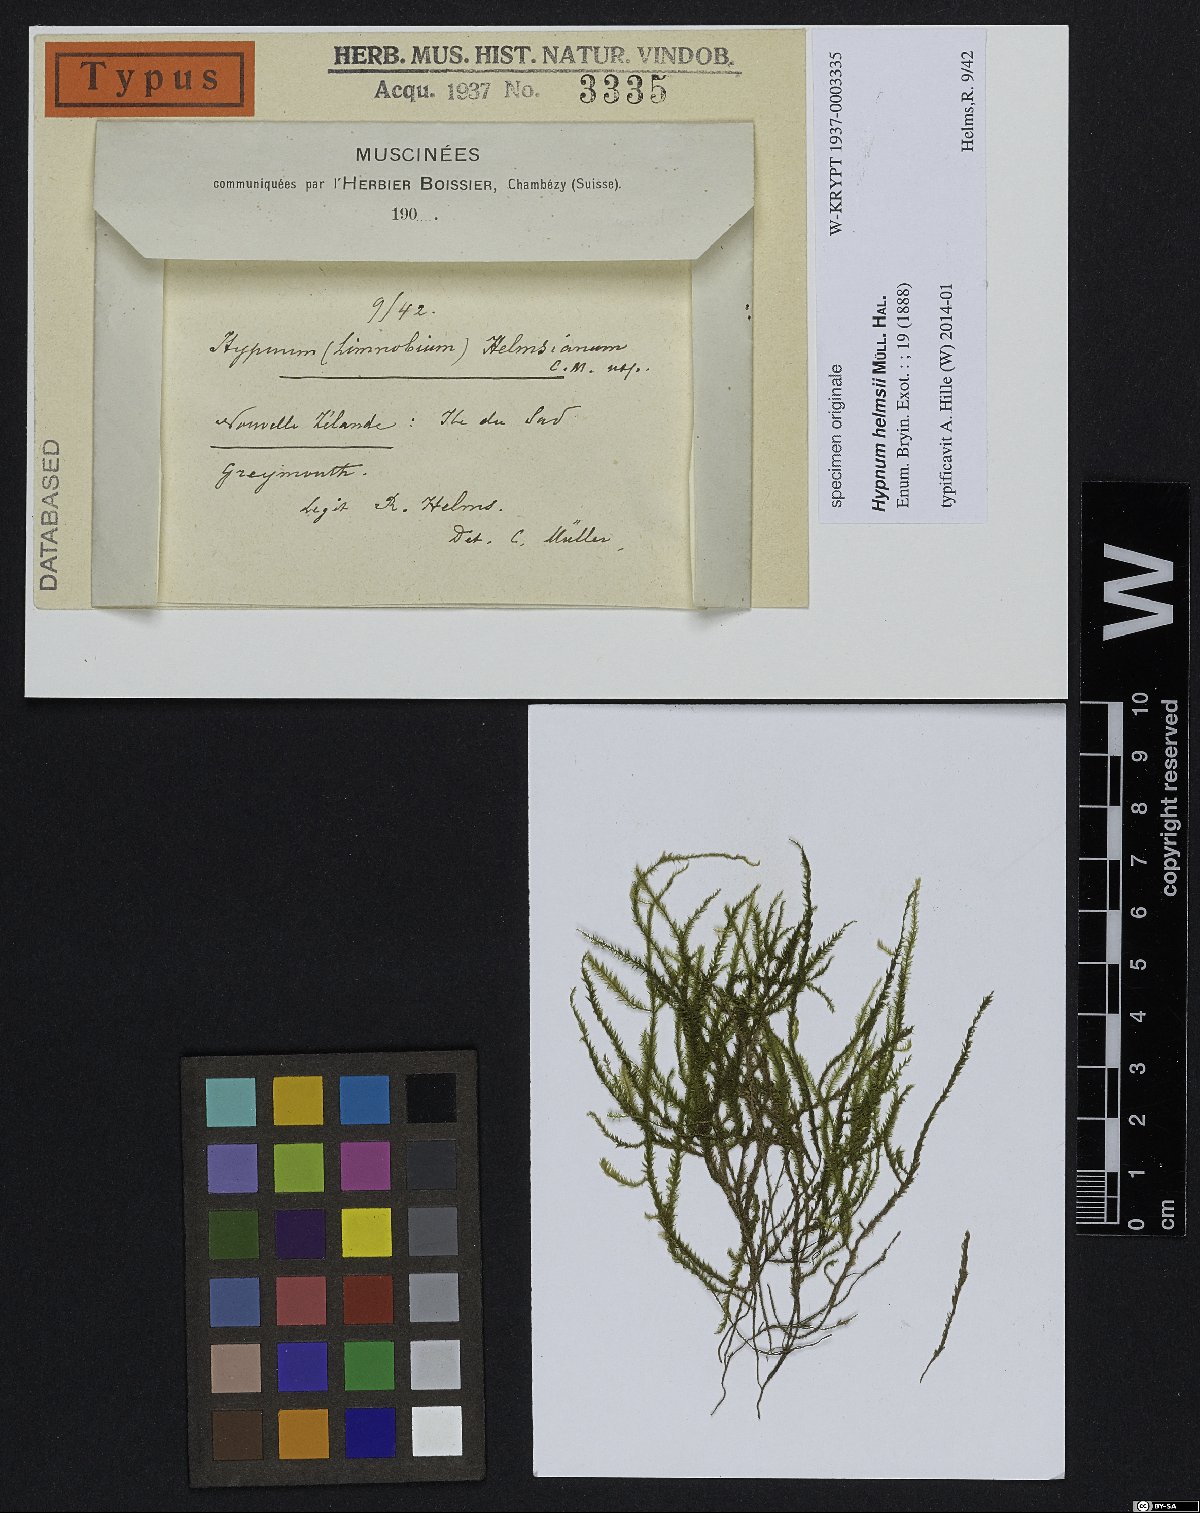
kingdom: Plantae
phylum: Bryophyta
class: Bryopsida
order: Hypnales
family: Hypnaceae
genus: Hypnum
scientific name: Hypnum
